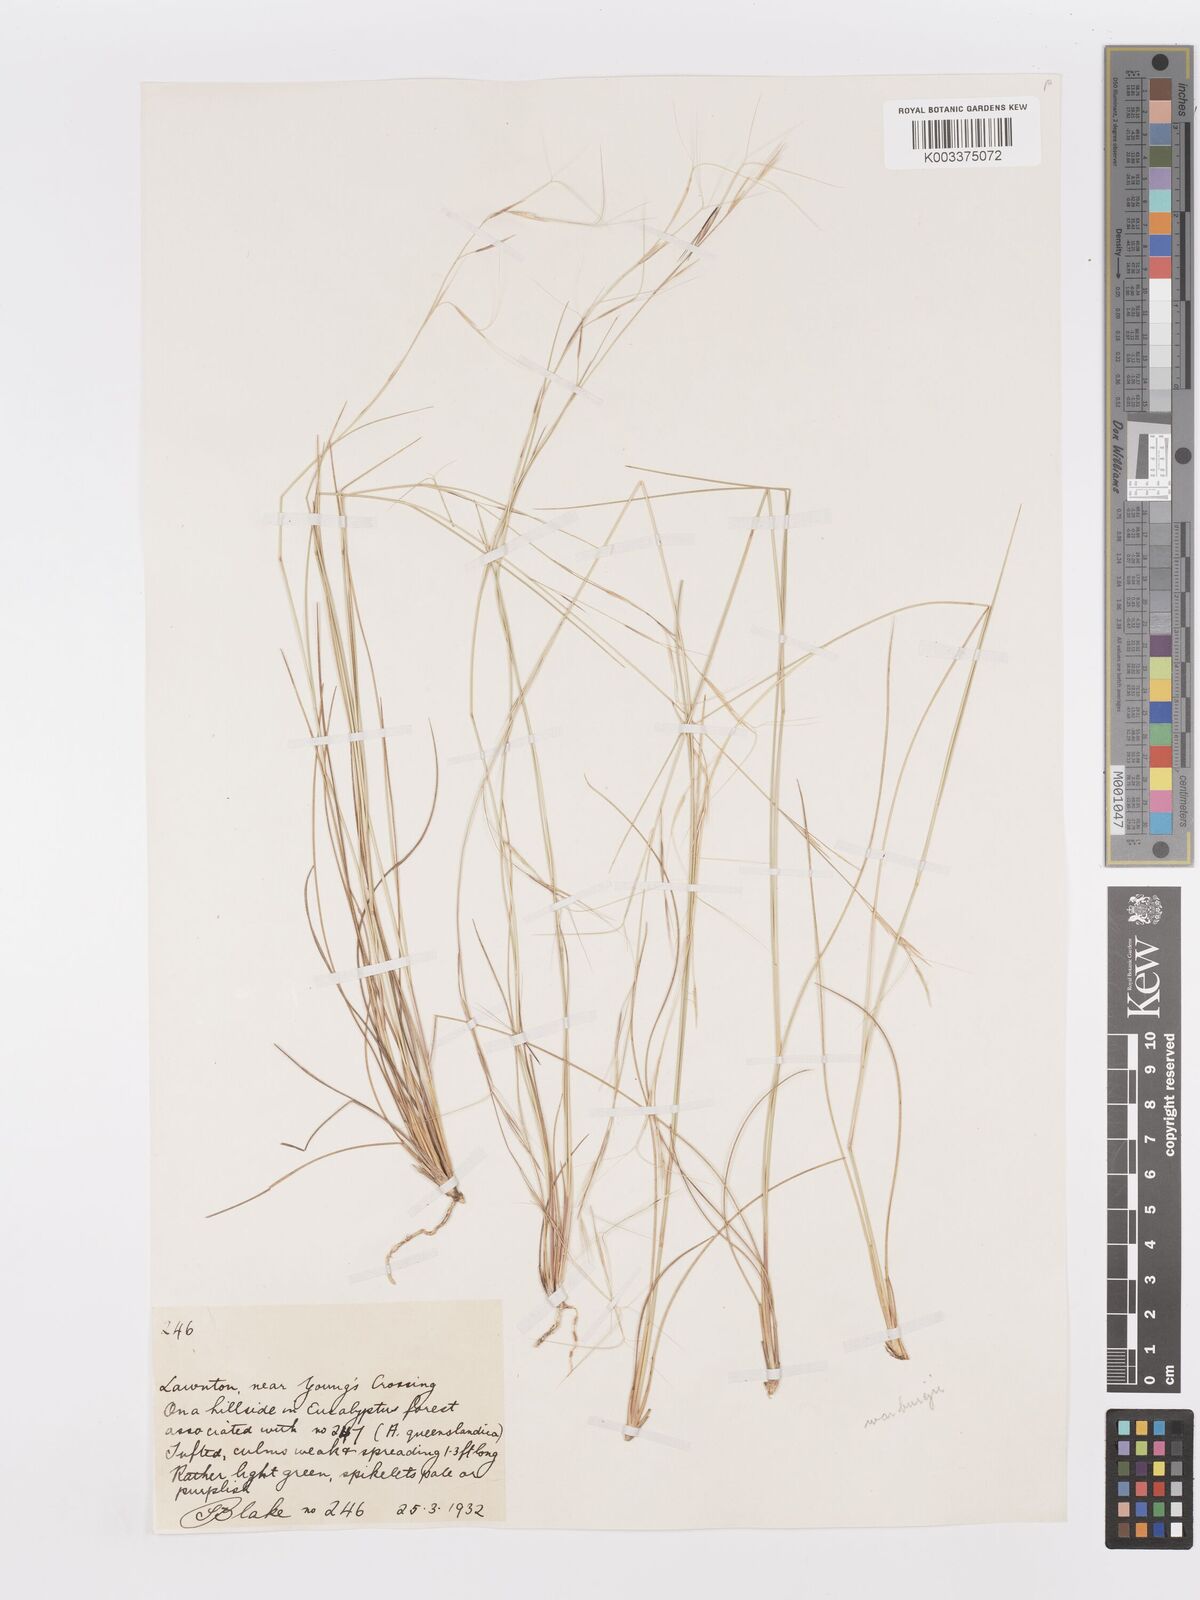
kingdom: Plantae
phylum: Tracheophyta
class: Liliopsida
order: Poales
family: Poaceae
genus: Aristida
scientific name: Aristida warburgii
